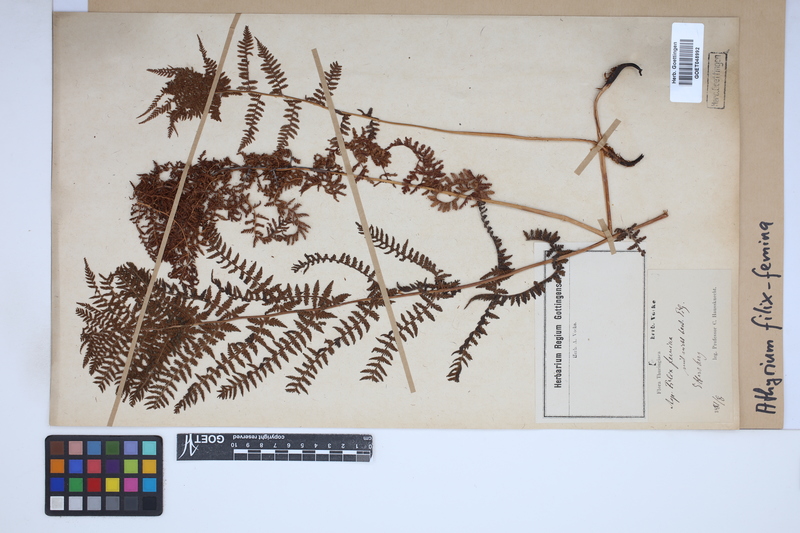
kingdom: Plantae
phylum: Tracheophyta
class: Polypodiopsida
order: Polypodiales
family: Athyriaceae
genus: Athyrium
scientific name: Athyrium filix-femina
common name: Lady fern
